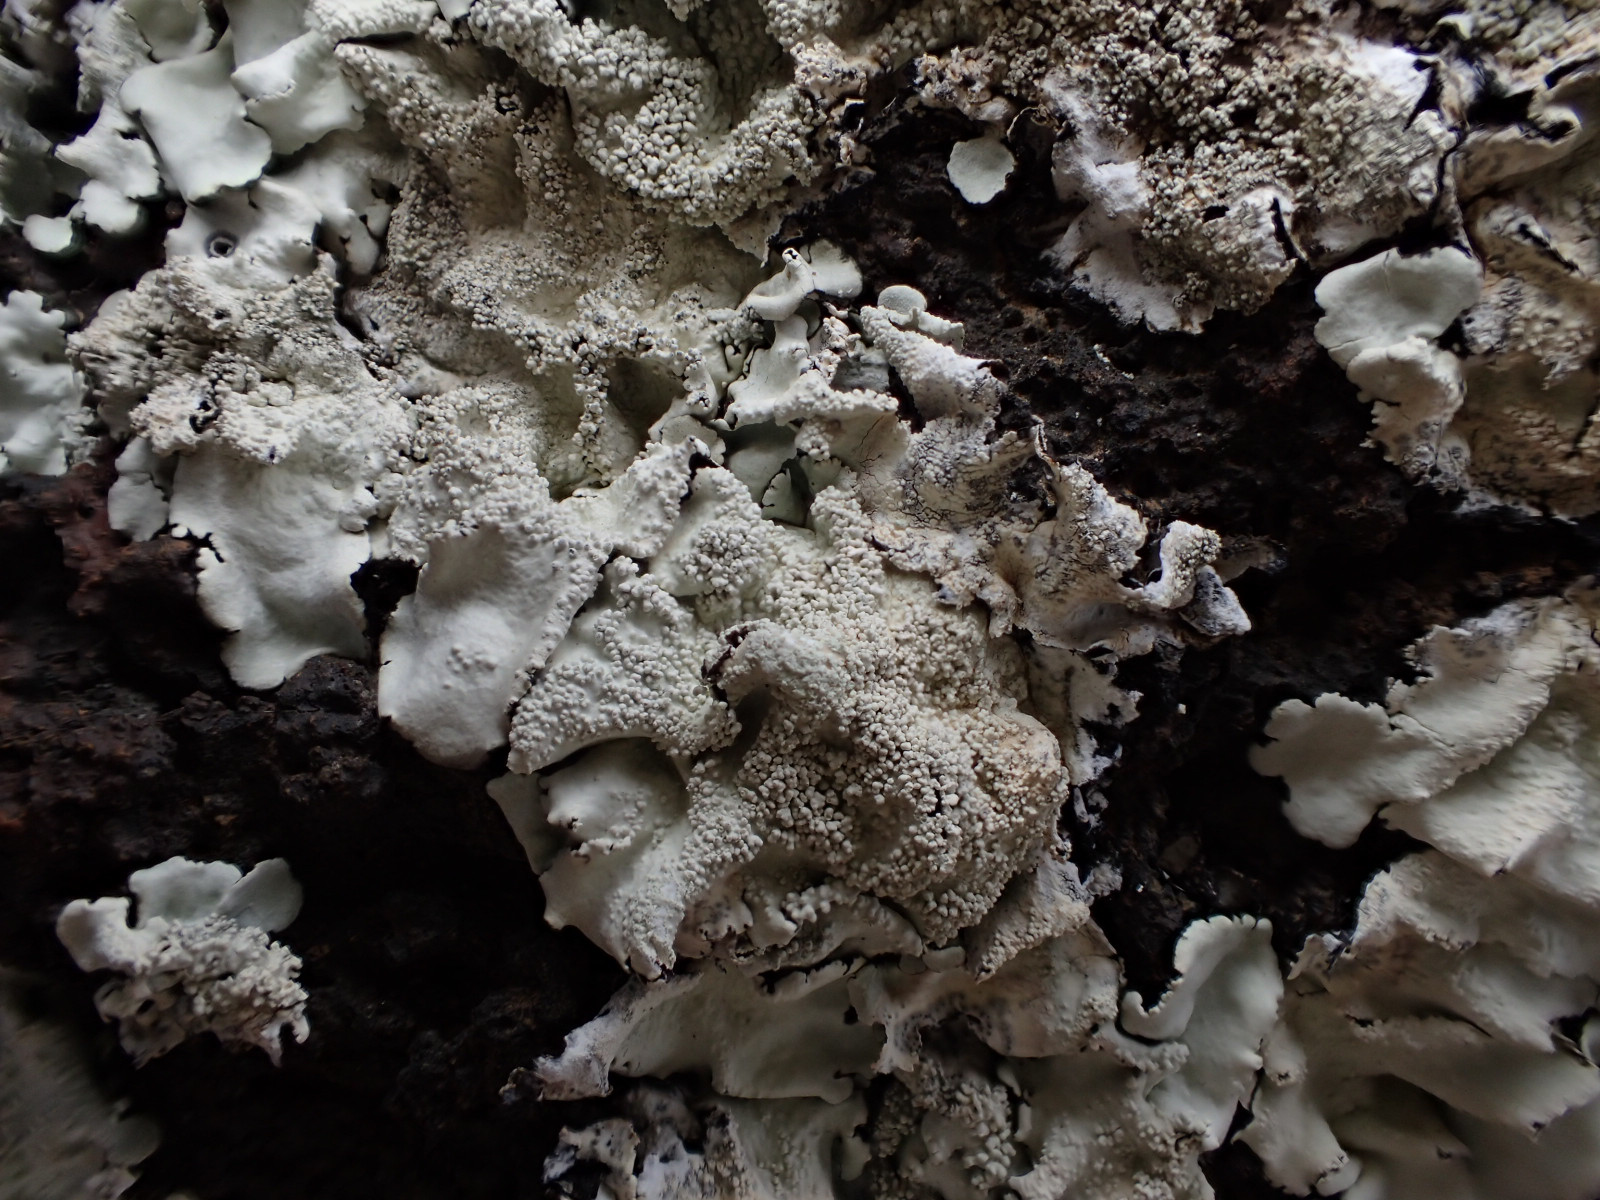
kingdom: Fungi
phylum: Ascomycota
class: Lecanoromycetes
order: Lecanorales
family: Parmeliaceae
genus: Flavoparmelia
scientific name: Flavoparmelia caperata
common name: gulgrøn skållav
